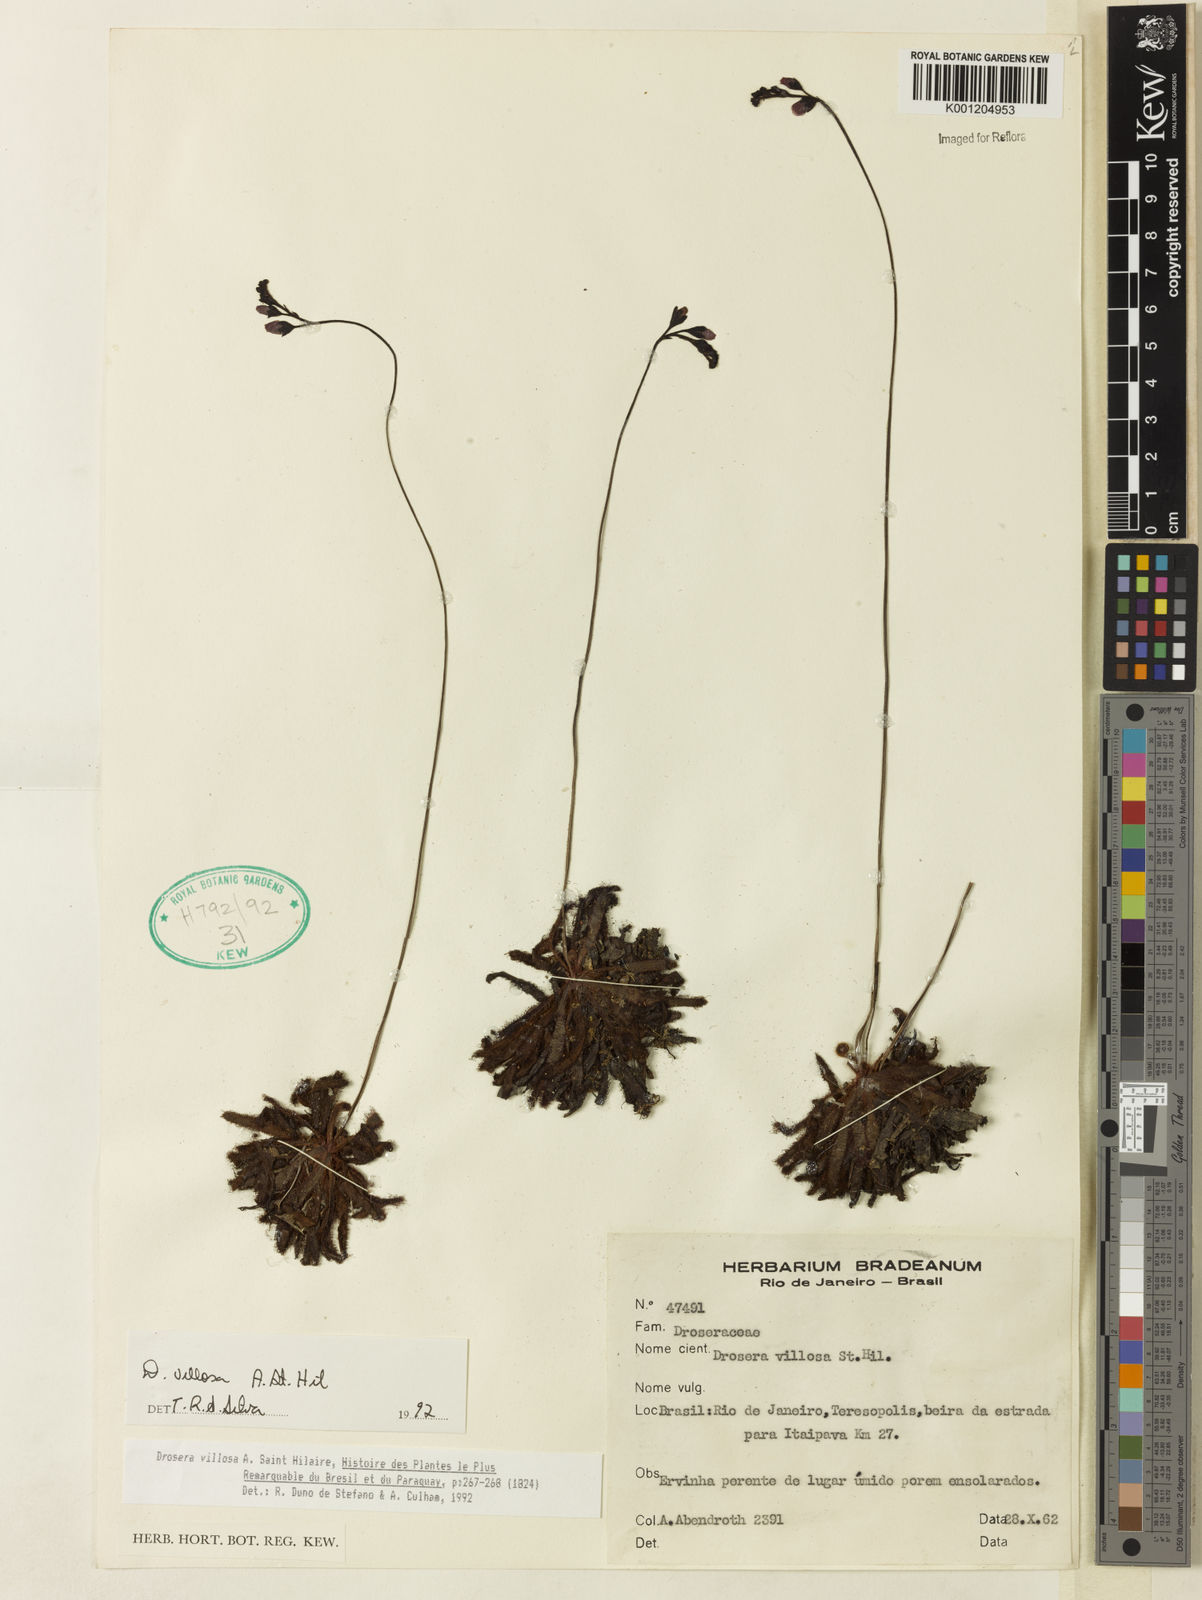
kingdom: Plantae
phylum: Tracheophyta
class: Magnoliopsida
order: Caryophyllales
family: Droseraceae
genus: Drosera
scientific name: Drosera villosa
